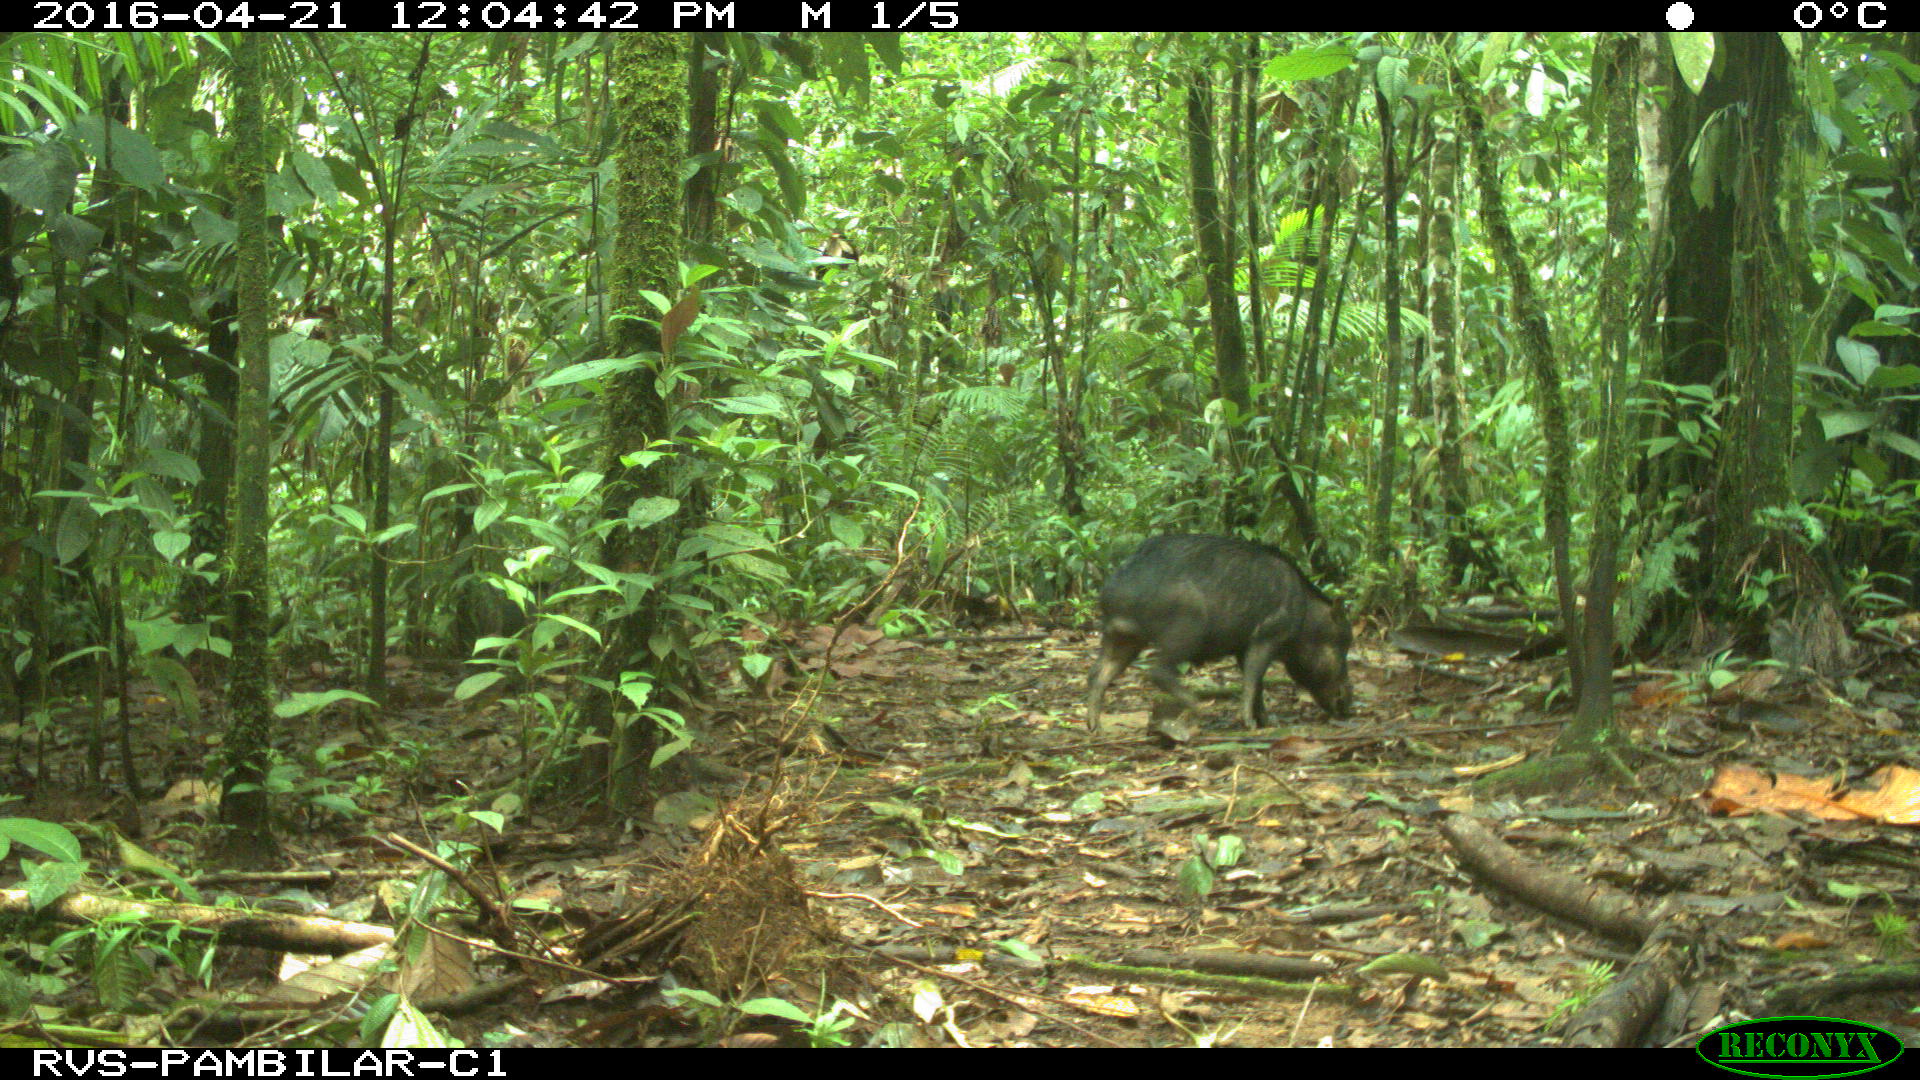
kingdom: Animalia
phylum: Chordata
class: Mammalia
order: Artiodactyla
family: Tayassuidae
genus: Tayassu
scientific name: Tayassu pecari
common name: White-lipped peccary
